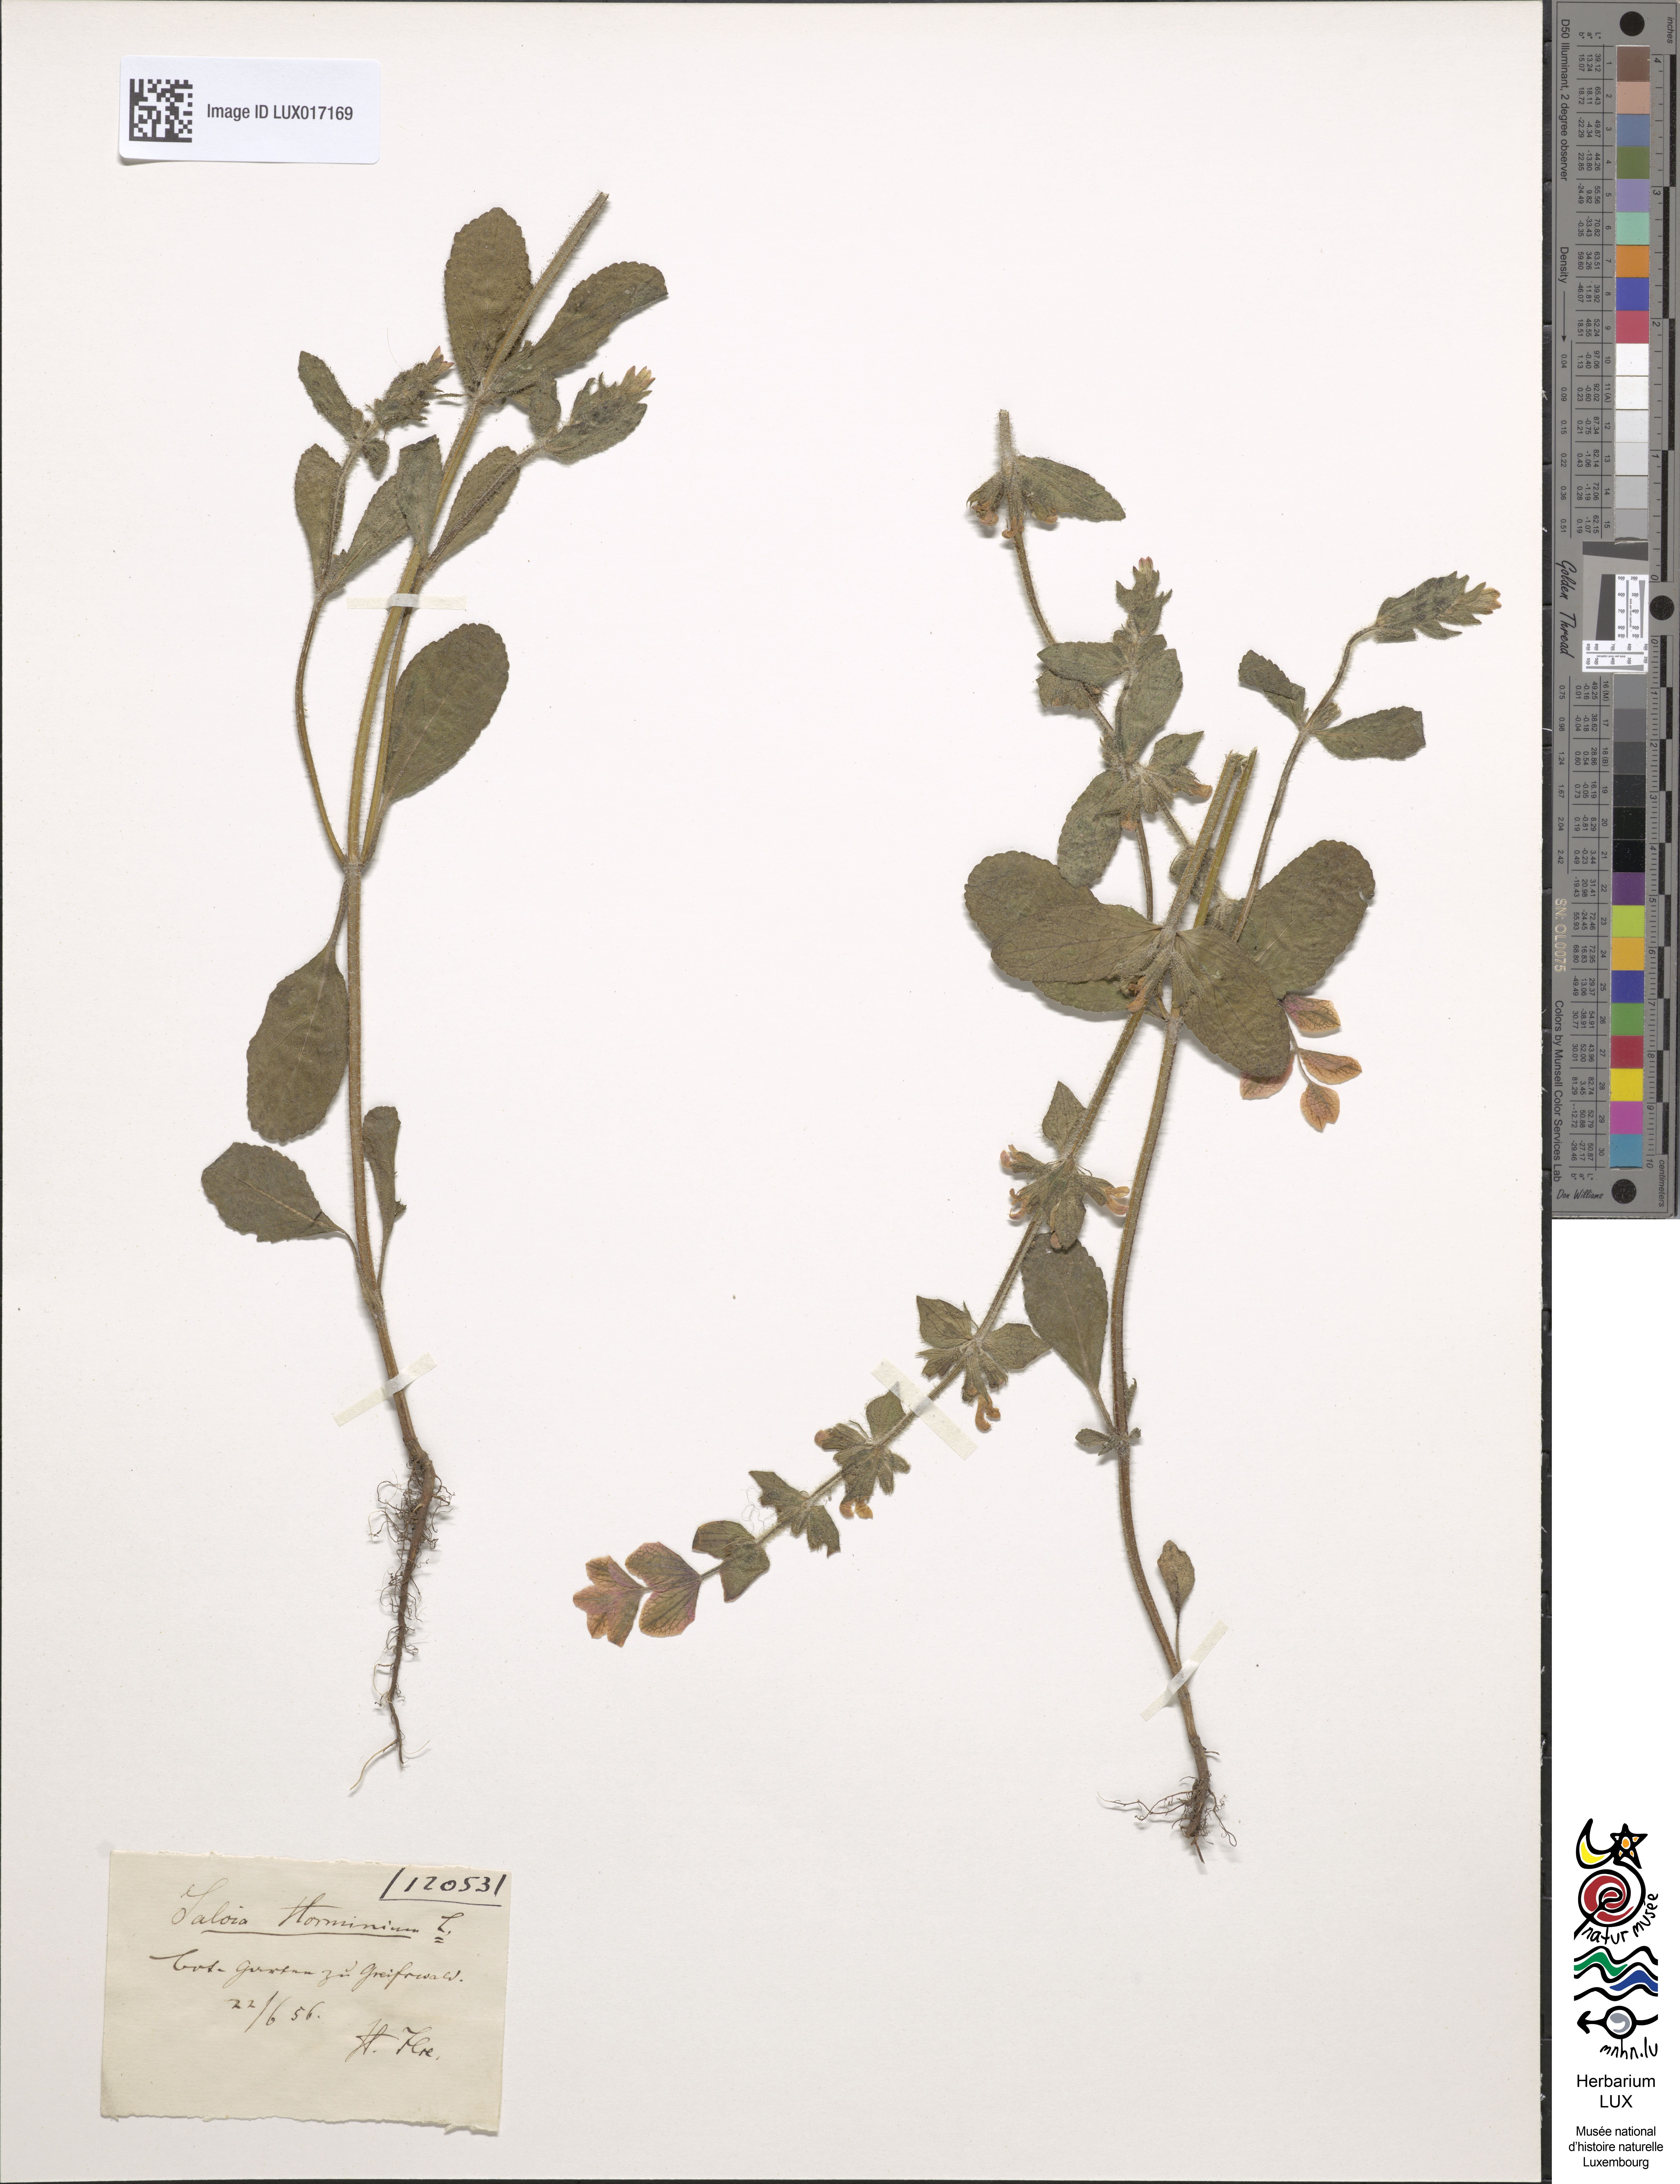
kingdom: Plantae
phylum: Tracheophyta
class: Magnoliopsida
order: Lamiales
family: Lamiaceae
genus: Salvia
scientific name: Salvia viridis
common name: Annual clary
